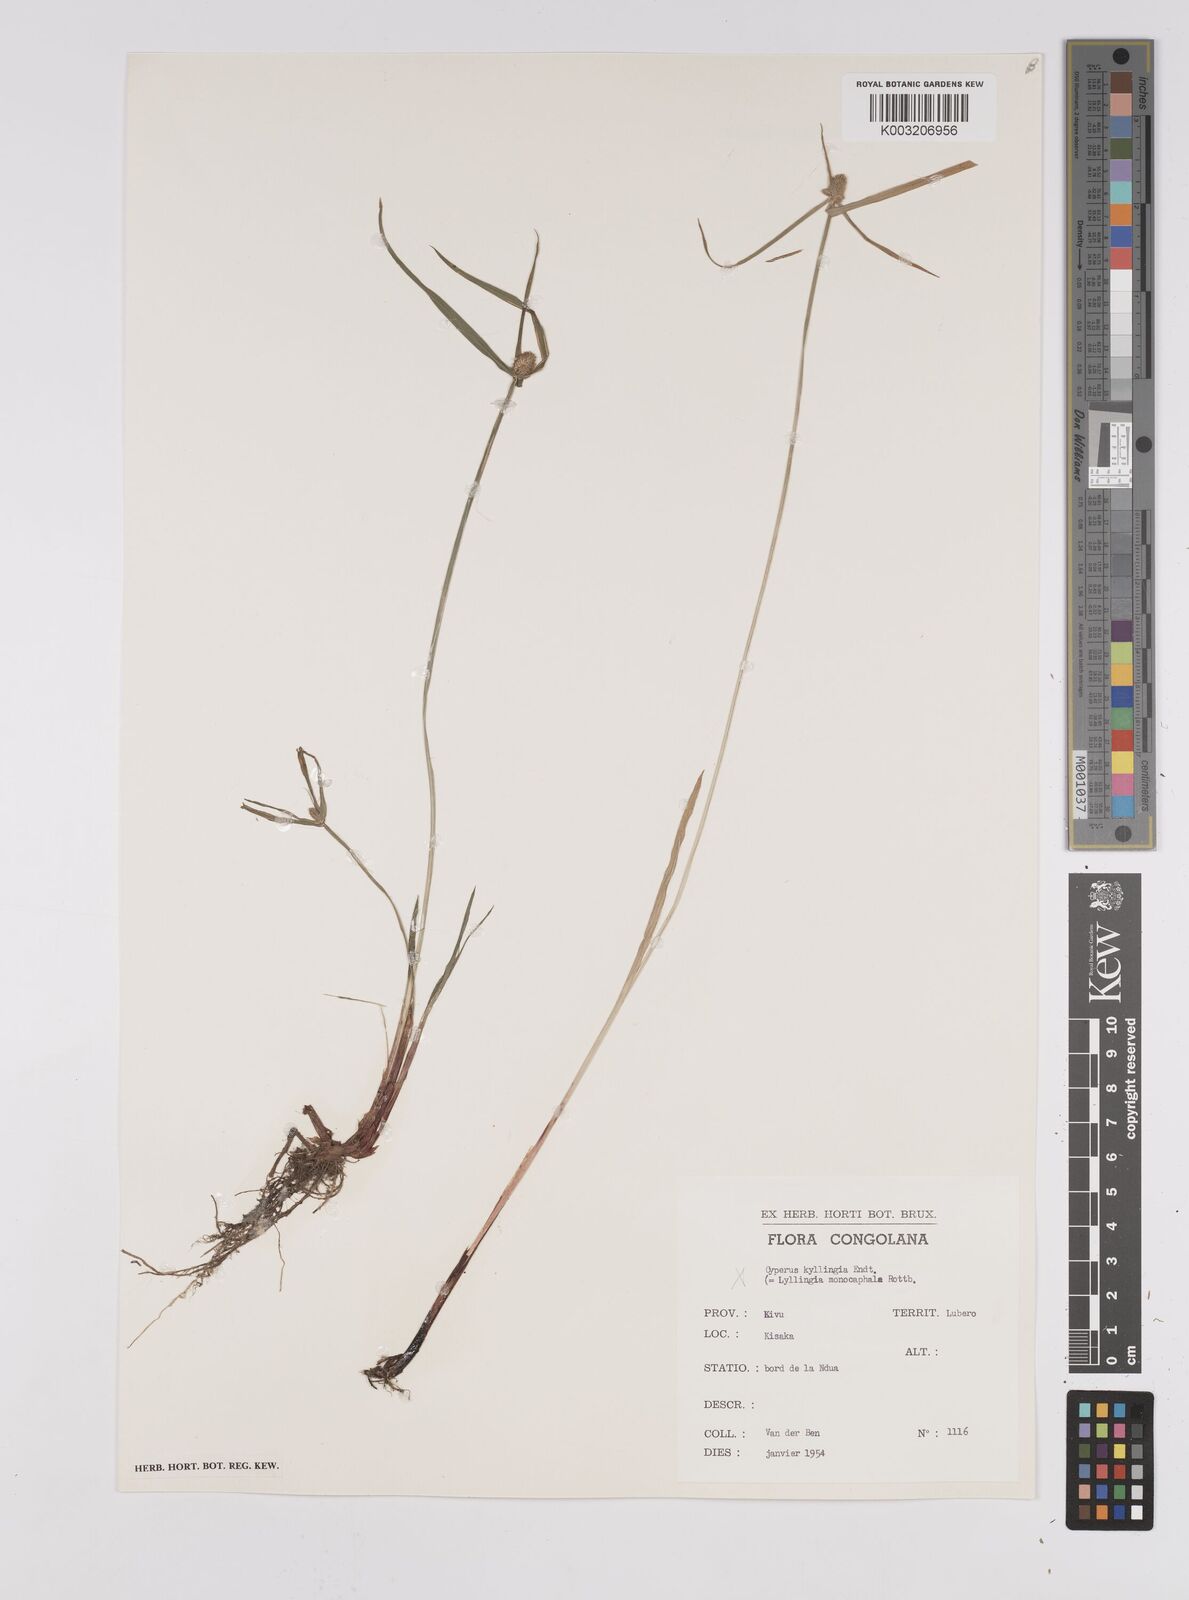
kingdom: Plantae
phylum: Tracheophyta
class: Liliopsida
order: Poales
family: Cyperaceae
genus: Cyperus
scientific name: Cyperus
